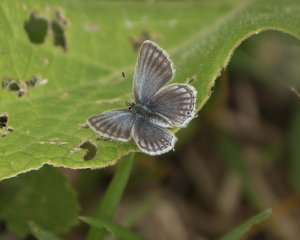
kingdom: Animalia
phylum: Arthropoda
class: Insecta
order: Lepidoptera
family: Lycaenidae
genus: Elkalyce
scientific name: Elkalyce amyntula
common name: Western Tailed-Blue
